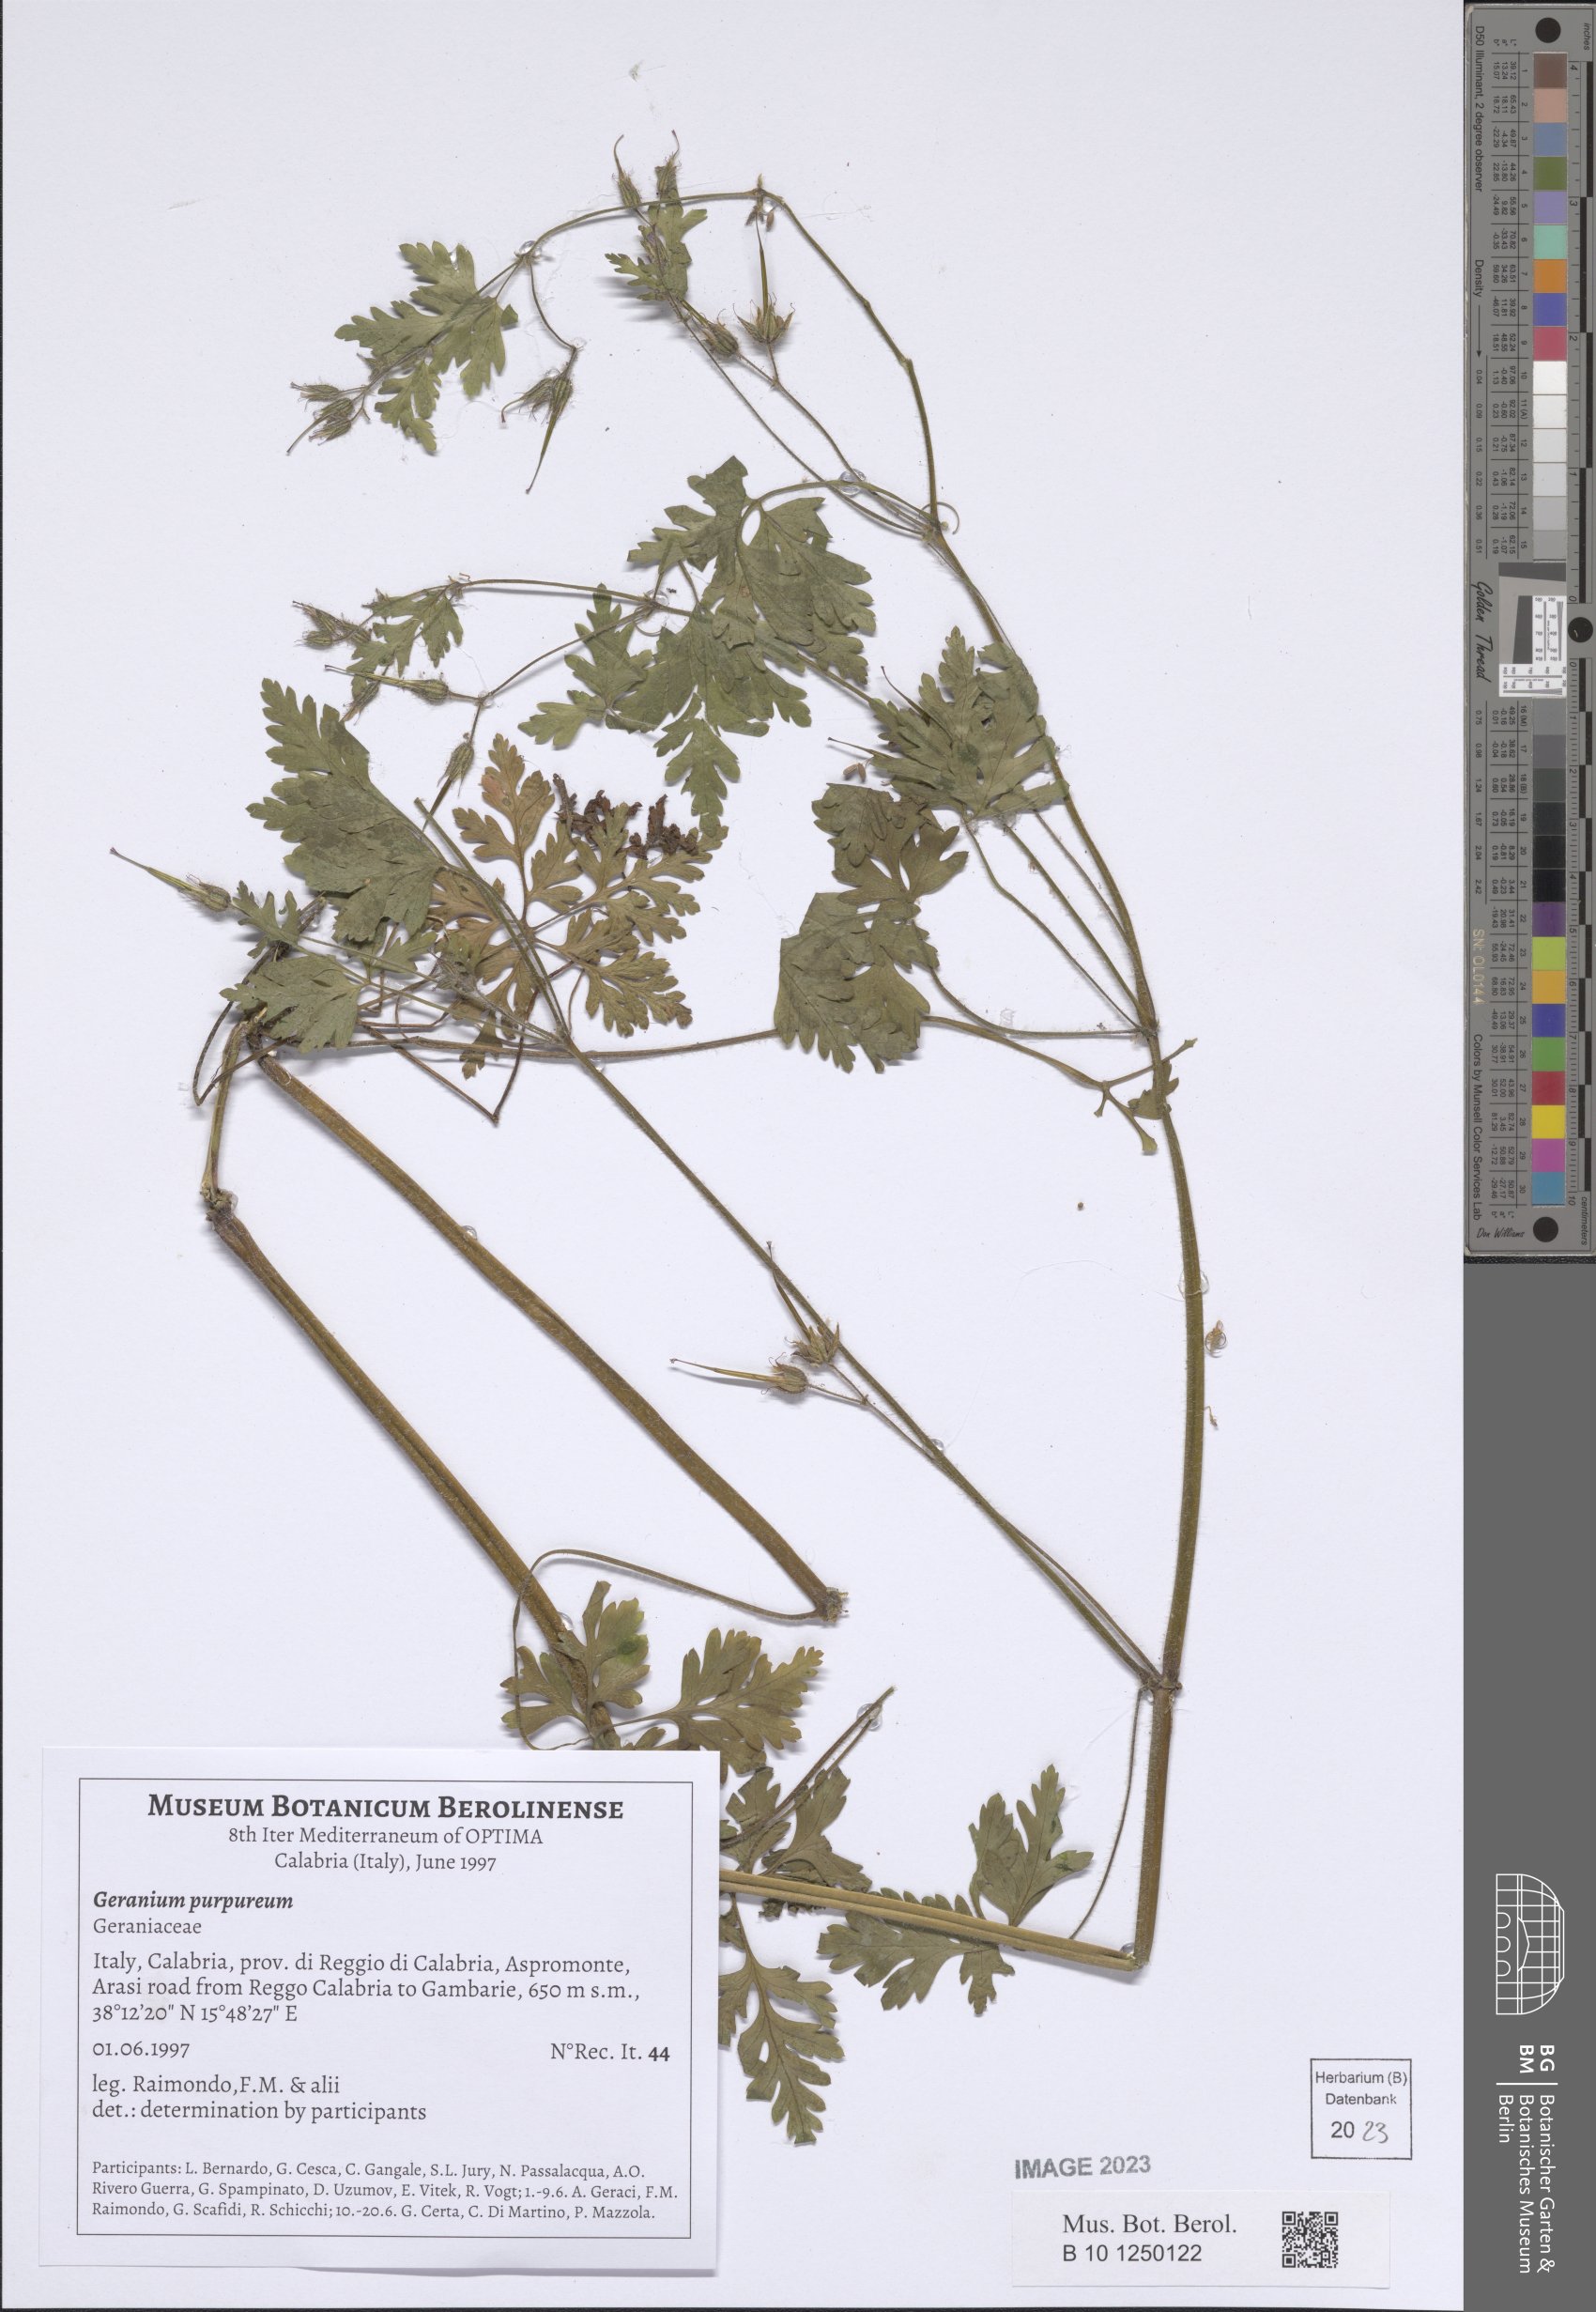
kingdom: Plantae
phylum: Tracheophyta
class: Magnoliopsida
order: Geraniales
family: Geraniaceae
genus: Geranium
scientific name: Geranium purpureum
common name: Little-robin
